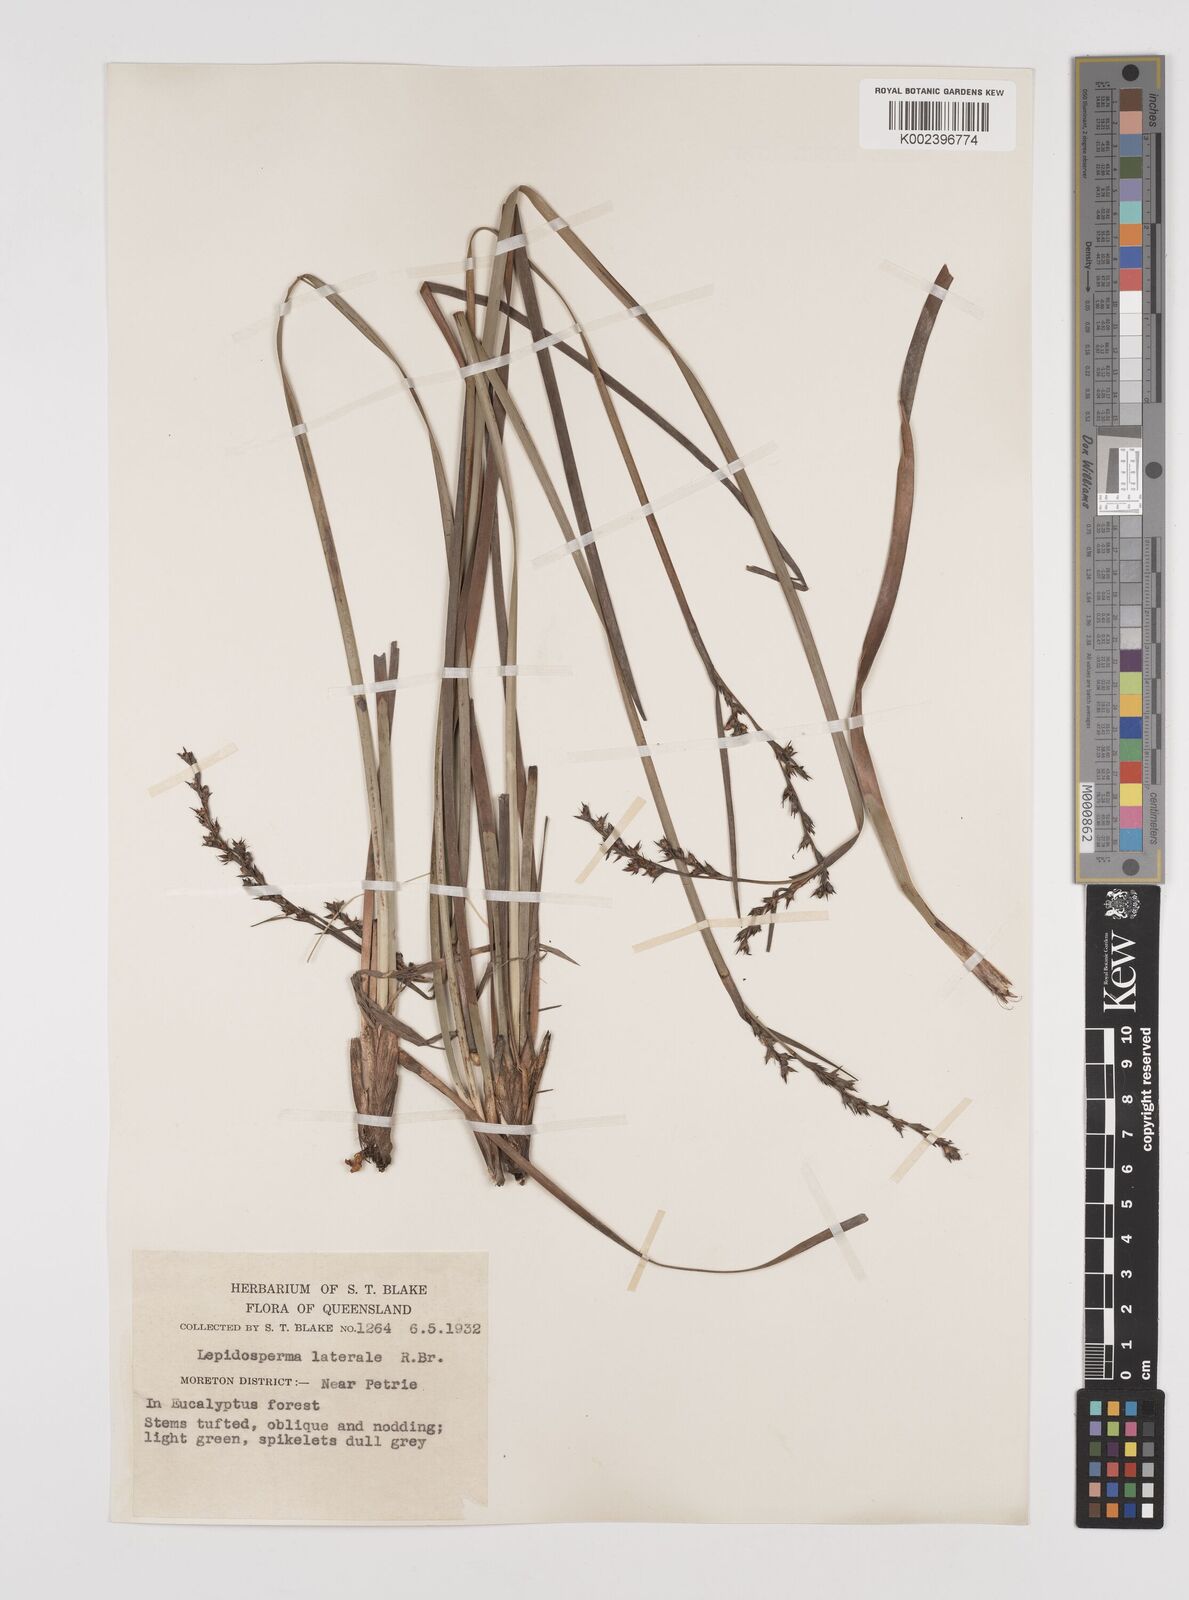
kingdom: Plantae
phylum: Tracheophyta
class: Liliopsida
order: Poales
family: Cyperaceae
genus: Lepidosperma
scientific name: Lepidosperma laterale
